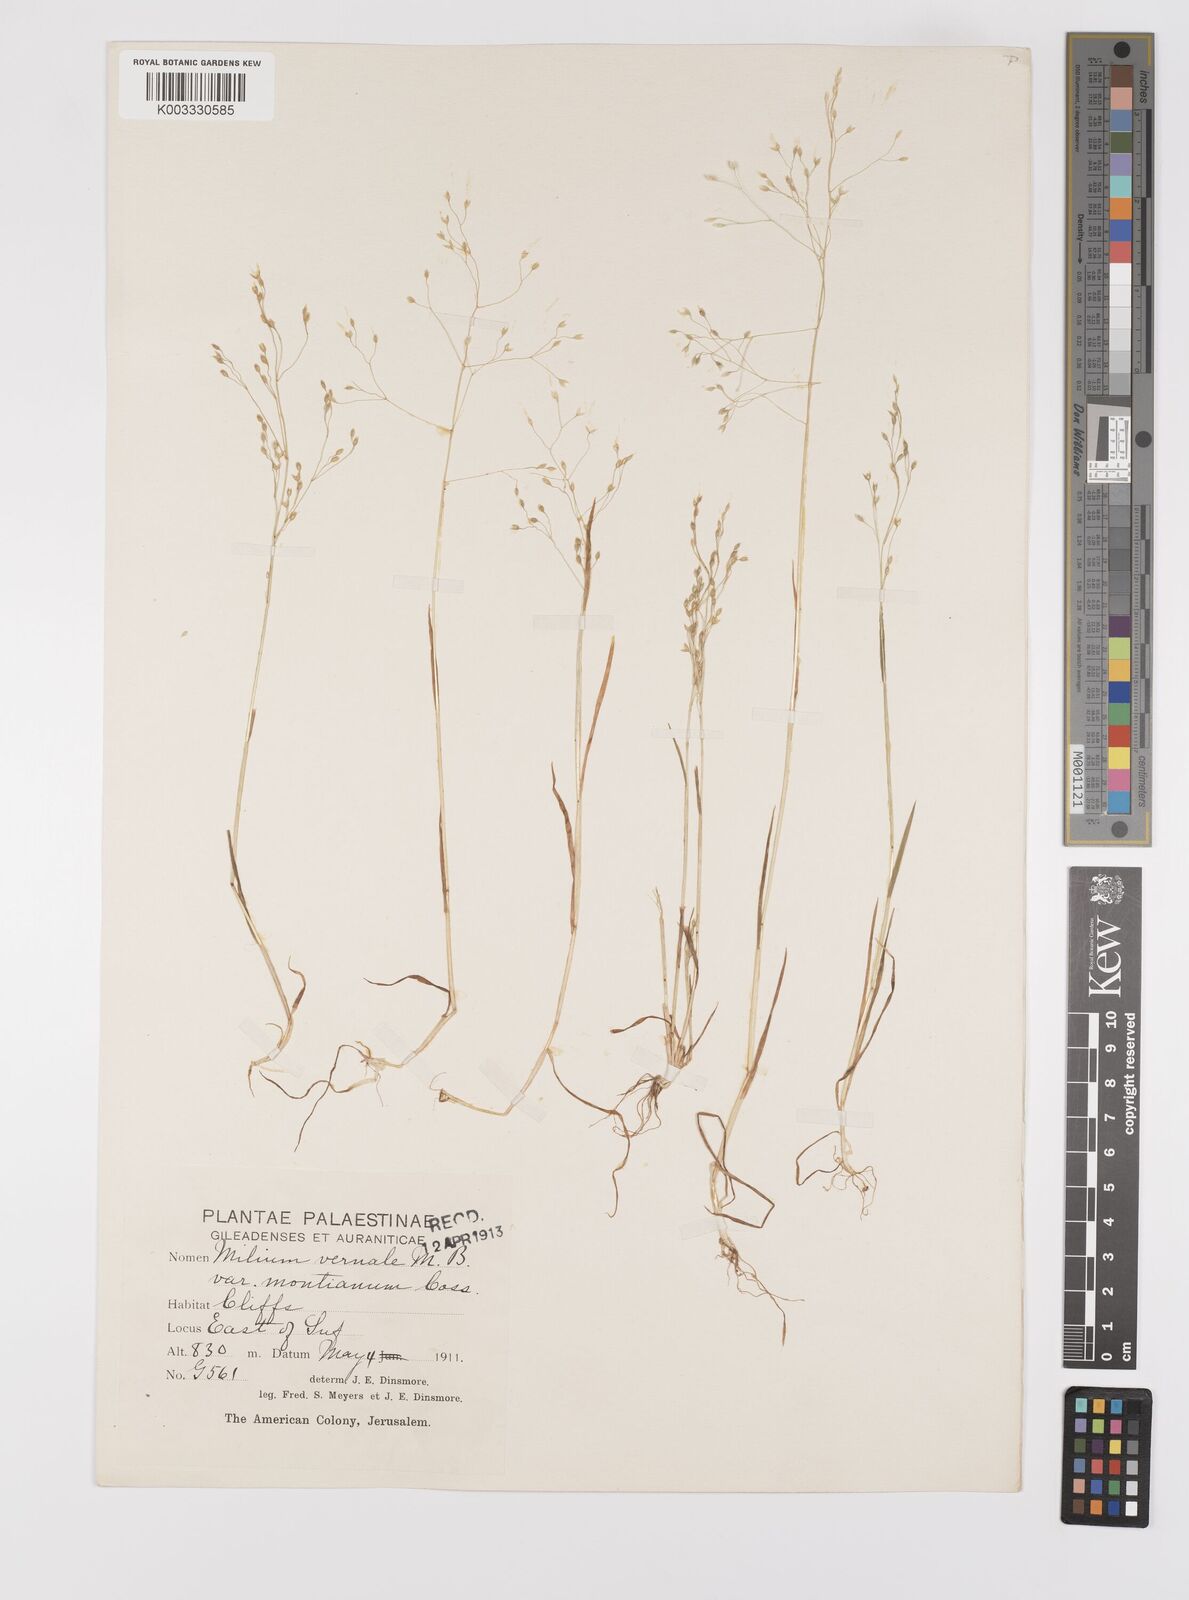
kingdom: Plantae
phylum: Tracheophyta
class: Liliopsida
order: Poales
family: Poaceae
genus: Milium
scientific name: Milium pedicellare
